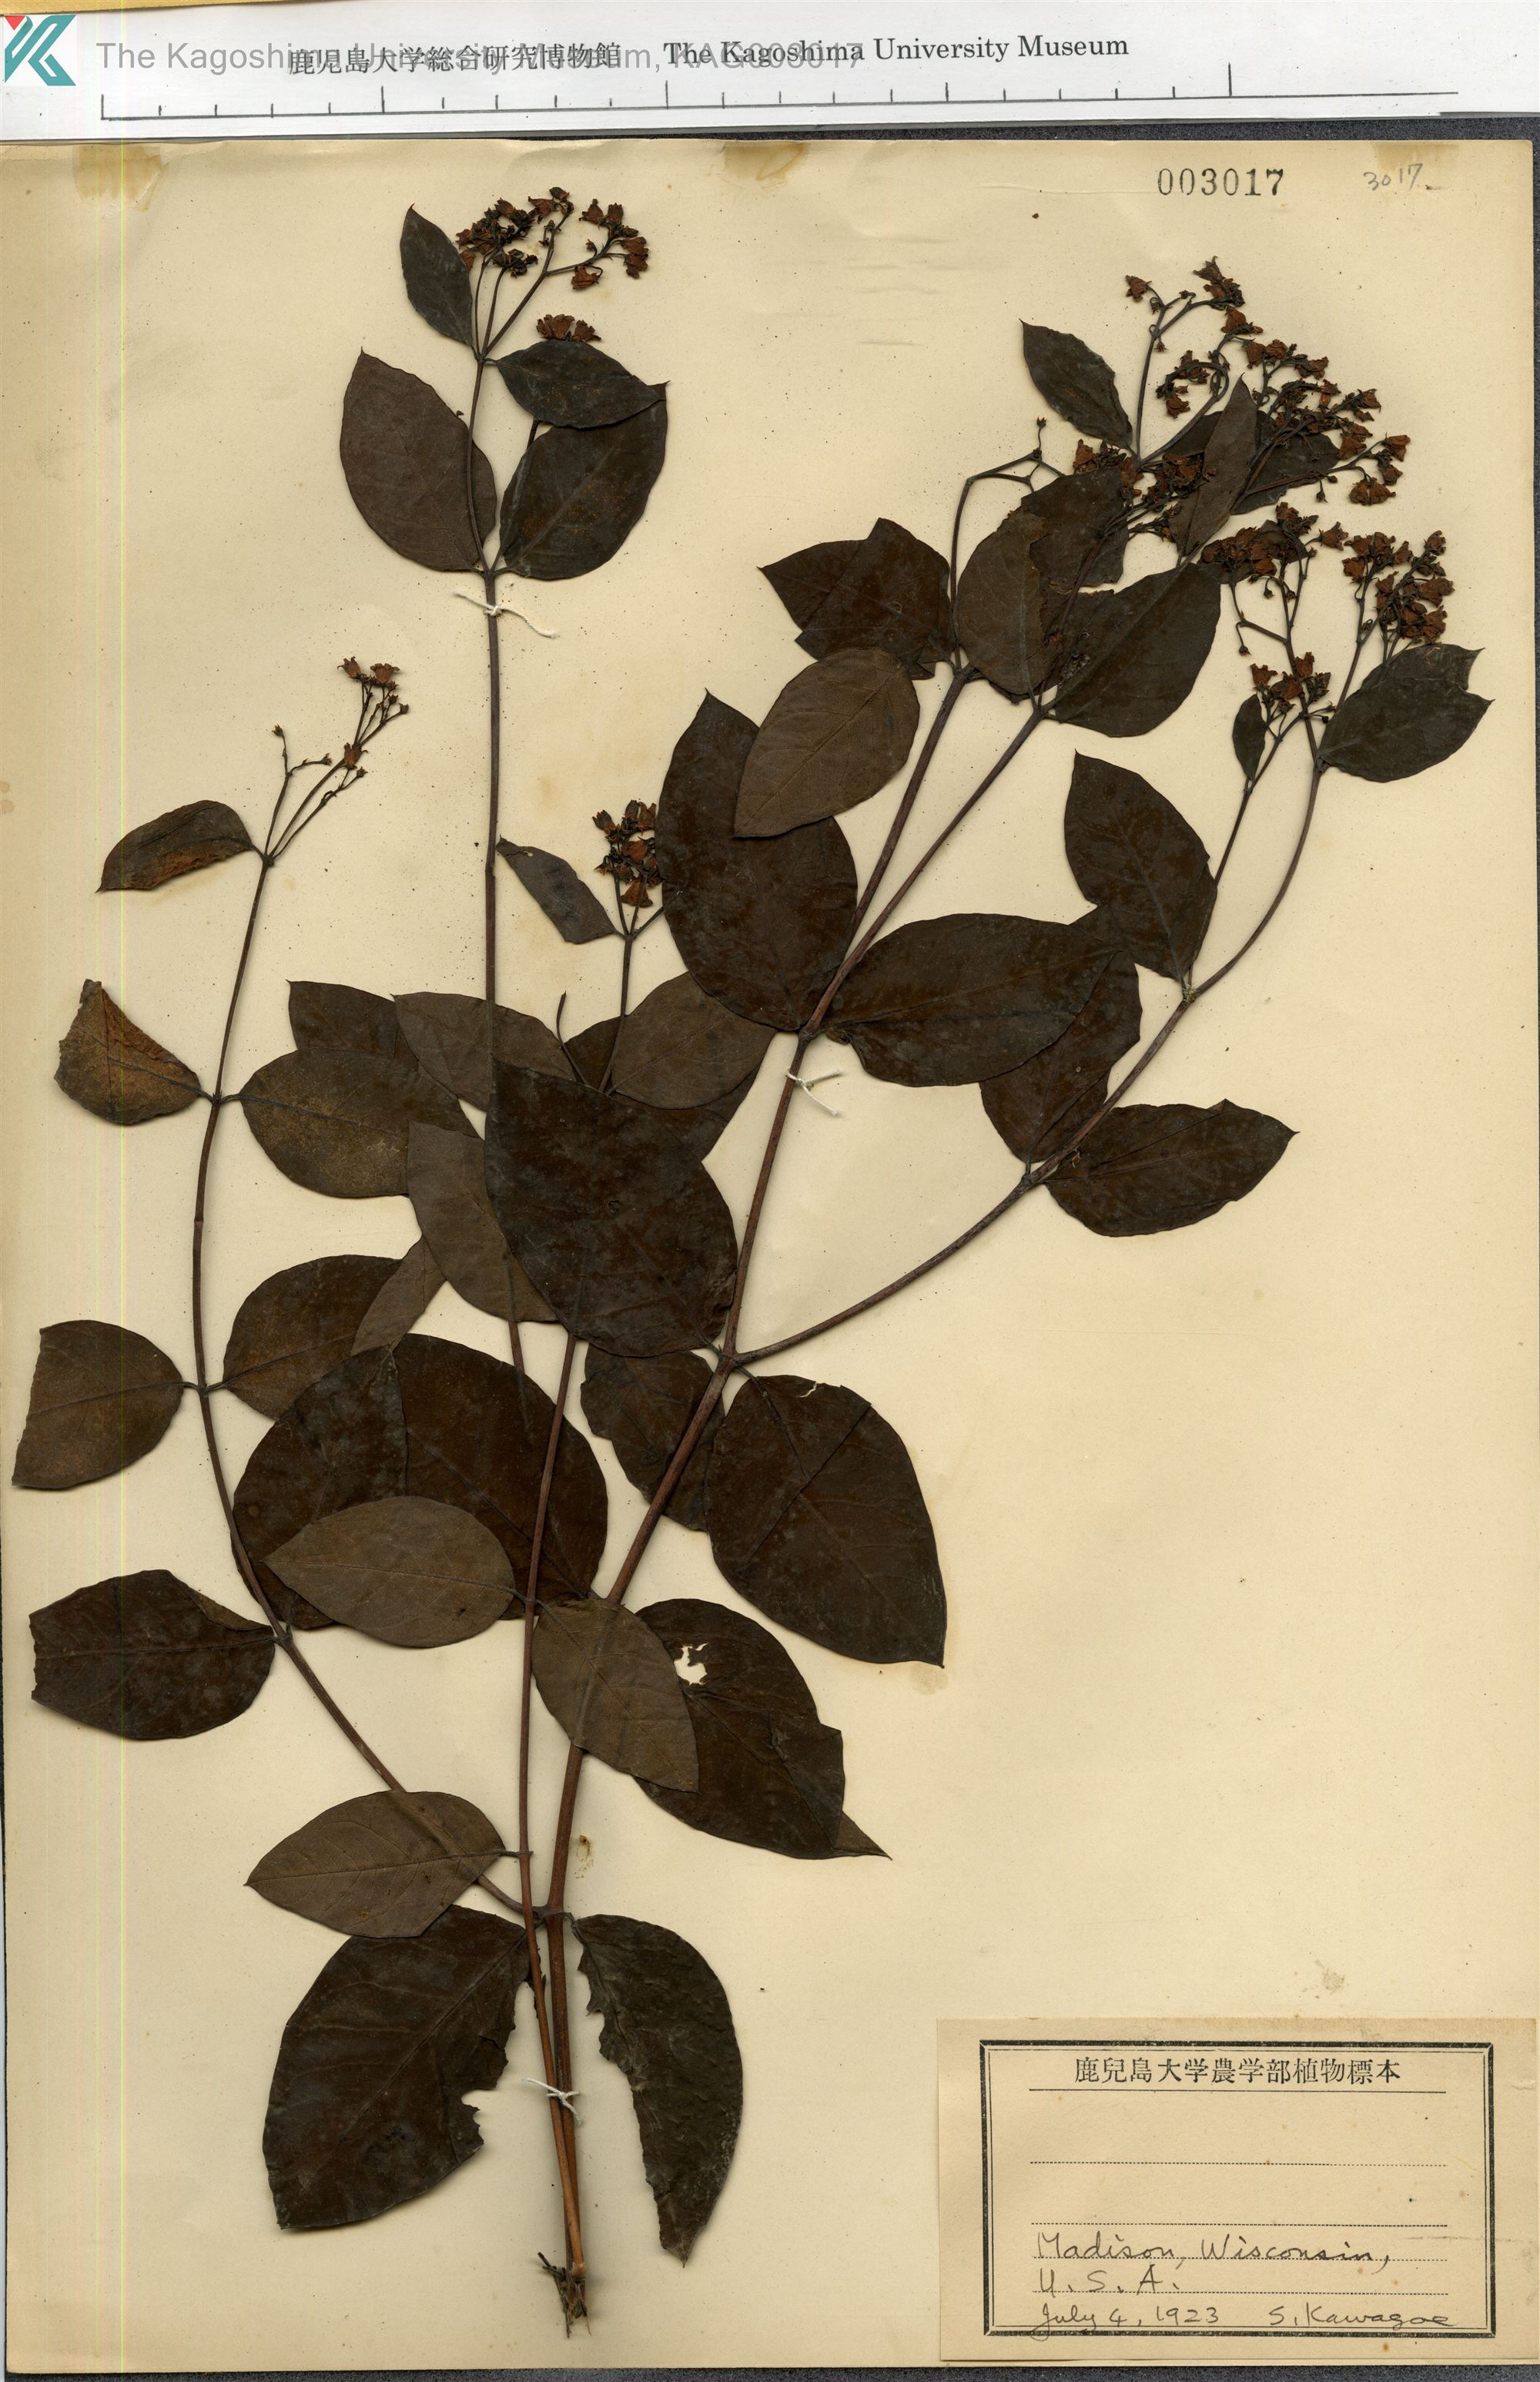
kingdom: Plantae
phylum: Tracheophyta
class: Magnoliopsida
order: Gentianales
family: Apocynaceae
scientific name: Apocynaceae
